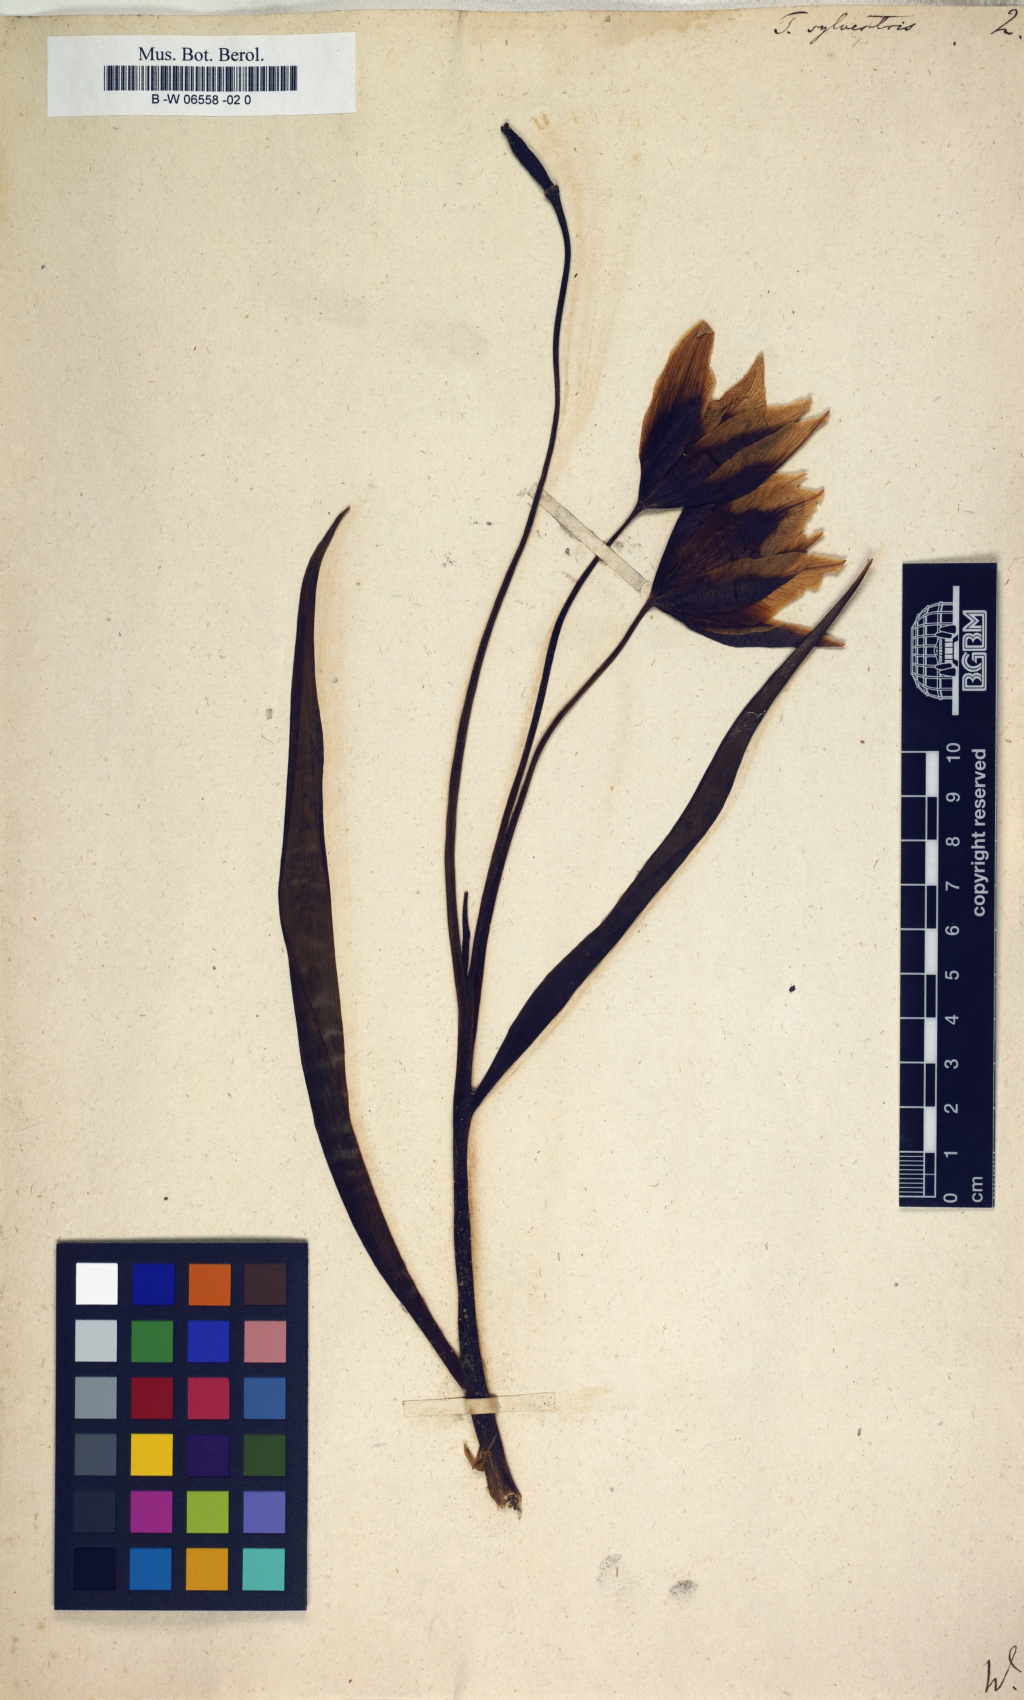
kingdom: Plantae
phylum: Tracheophyta
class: Liliopsida
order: Liliales
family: Liliaceae
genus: Tulipa
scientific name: Tulipa sylvestris
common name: Wild tulip
